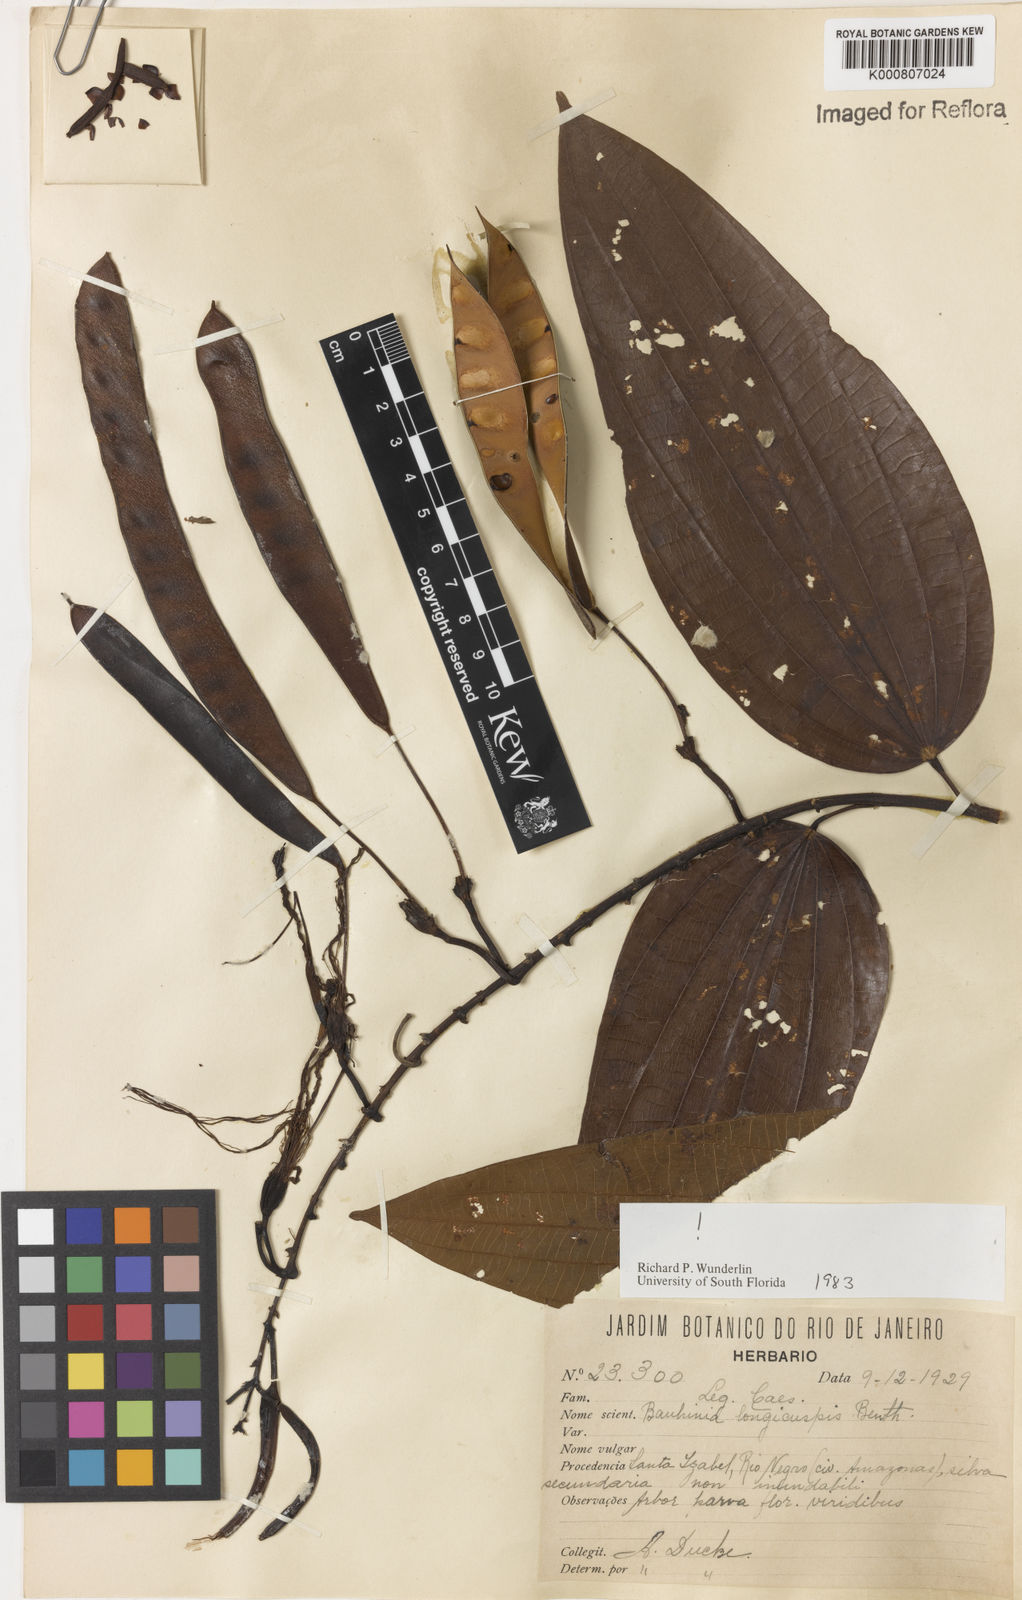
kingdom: Plantae
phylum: Tracheophyta
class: Magnoliopsida
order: Fabales
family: Fabaceae
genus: Bauhinia
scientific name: Bauhinia longicuspis
